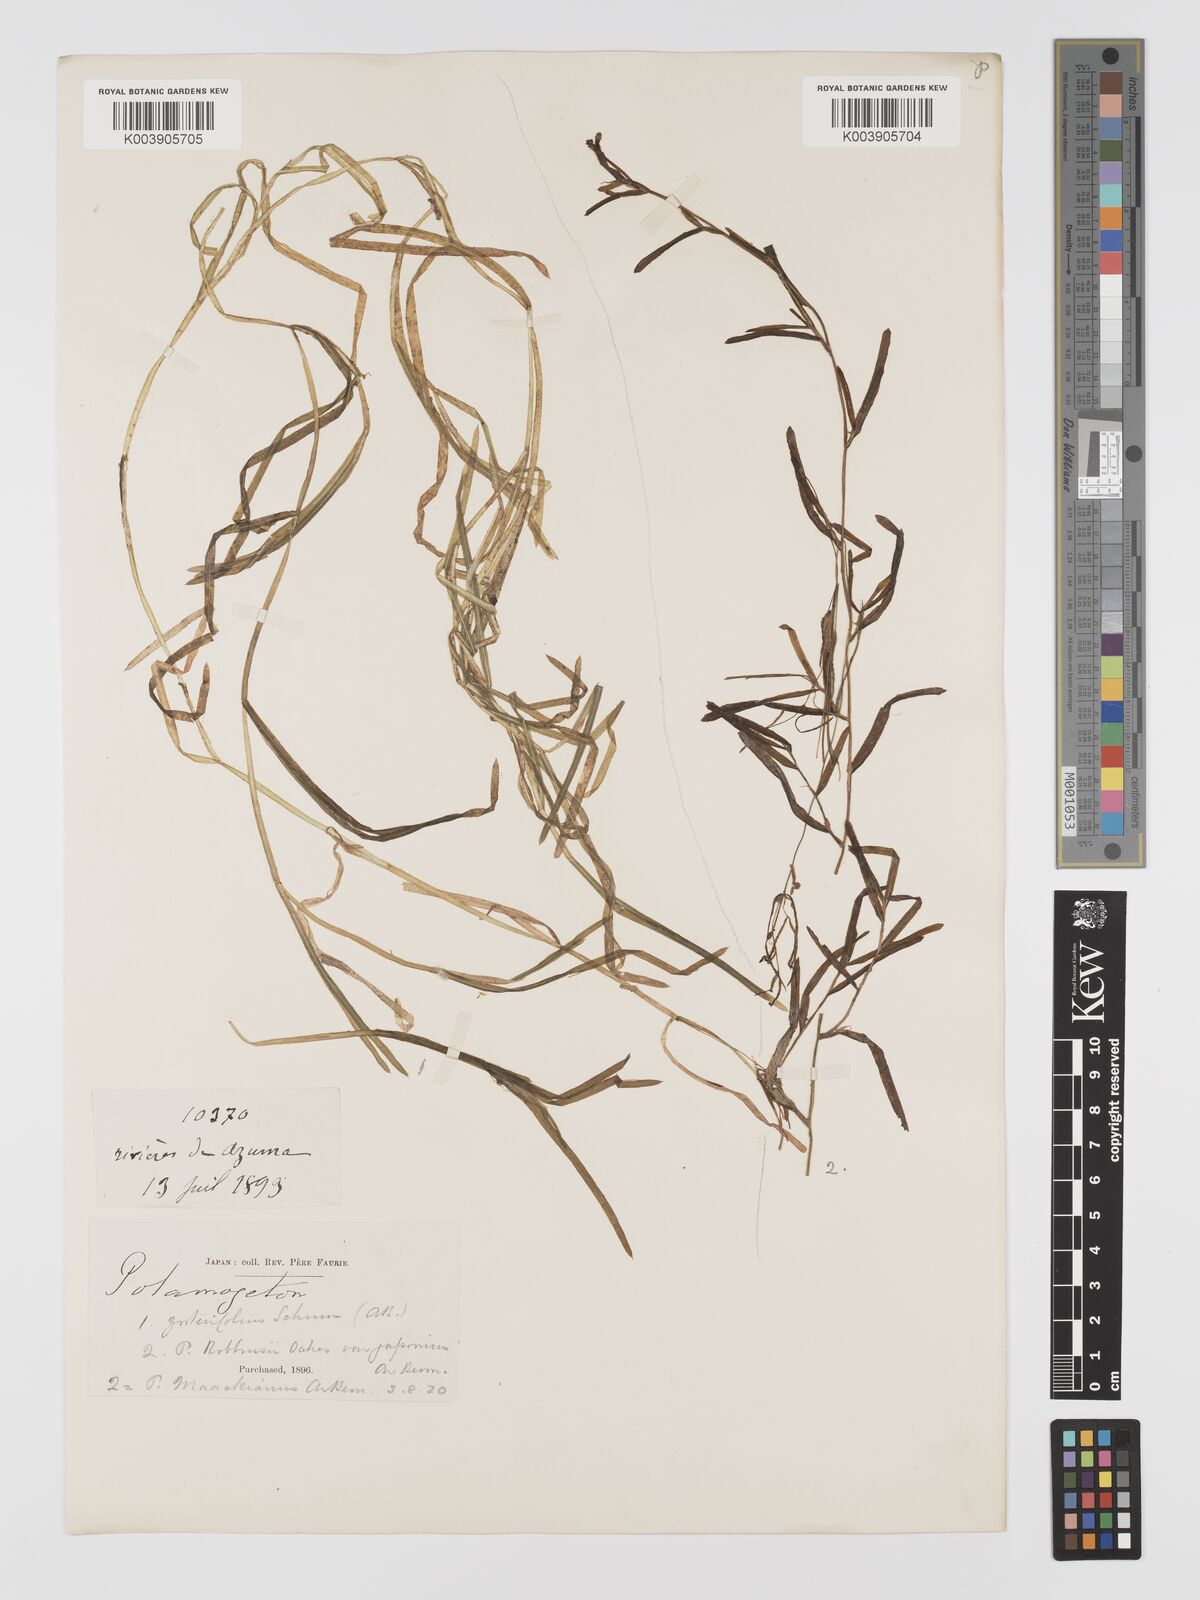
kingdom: Plantae
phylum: Tracheophyta
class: Liliopsida
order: Alismatales
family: Potamogetonaceae
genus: Potamogeton
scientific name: Potamogeton compressus
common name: Grass-wrack pondweed
